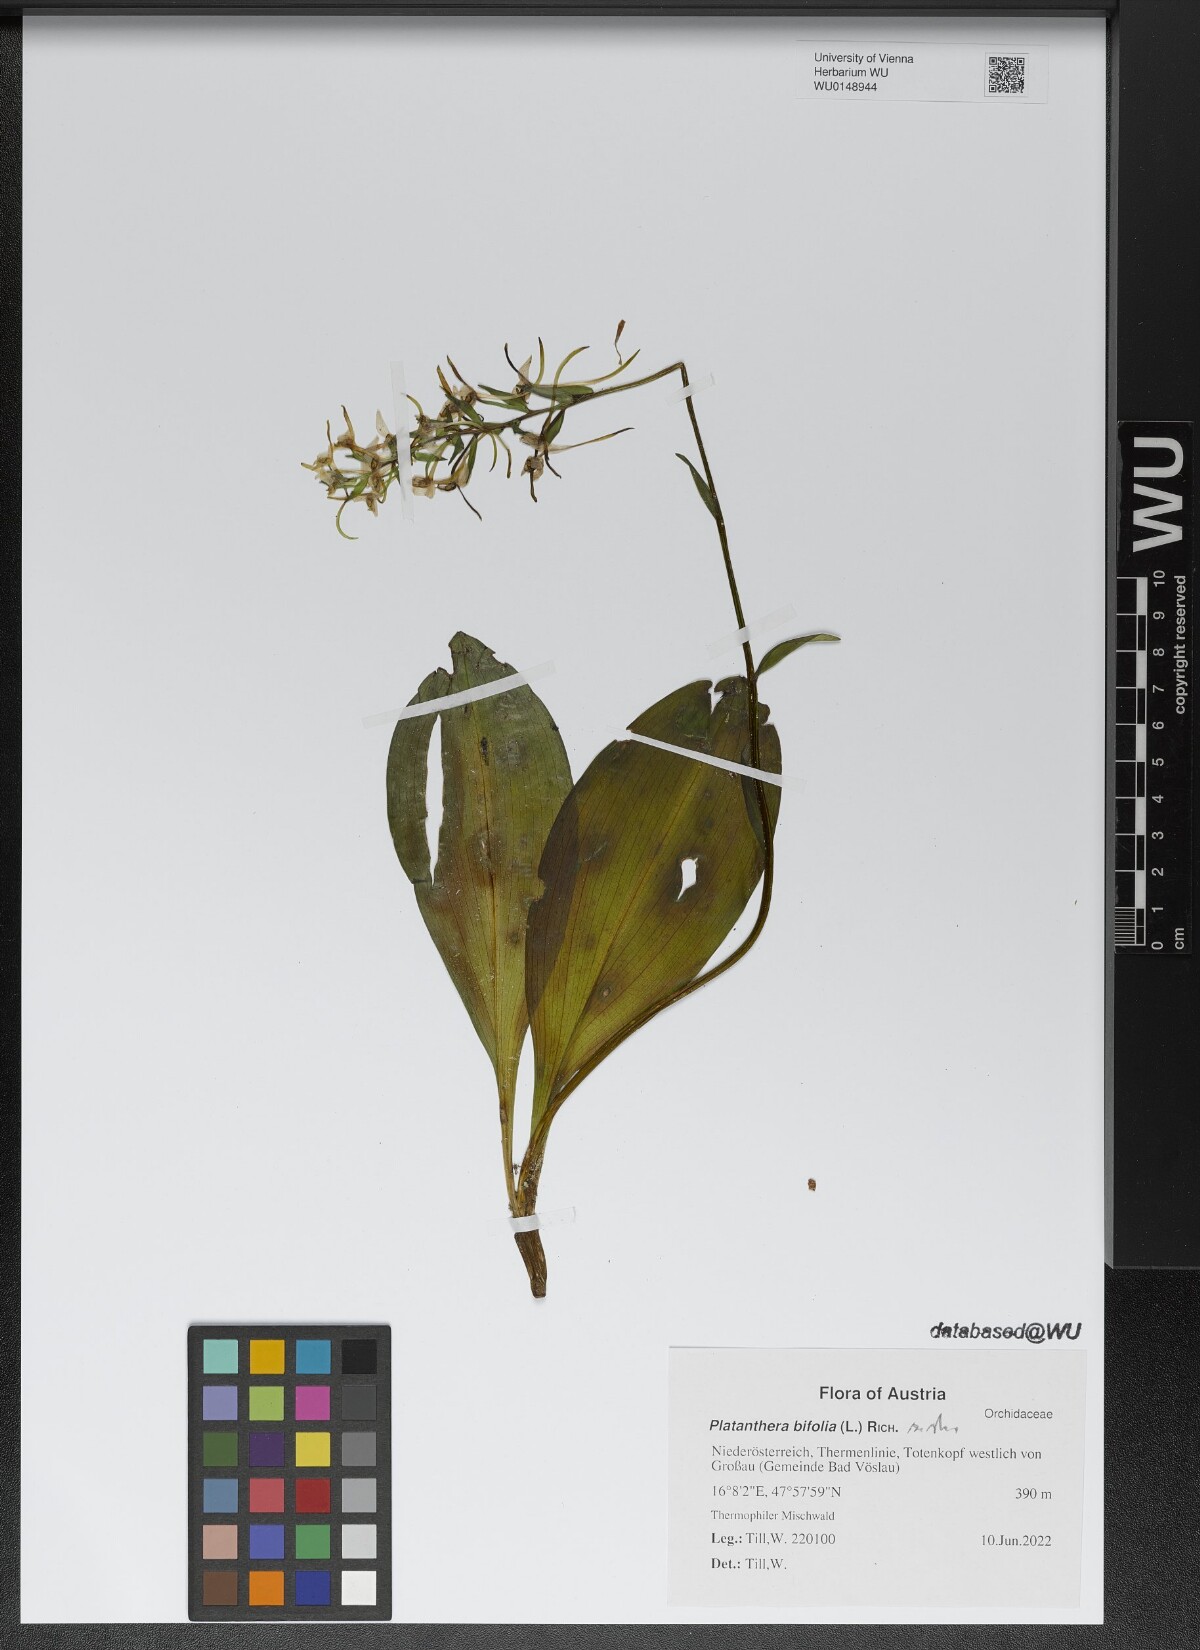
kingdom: Plantae
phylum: Tracheophyta
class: Liliopsida
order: Asparagales
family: Orchidaceae
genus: Platanthera
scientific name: Platanthera bifolia
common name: Lesser butterfly-orchid
